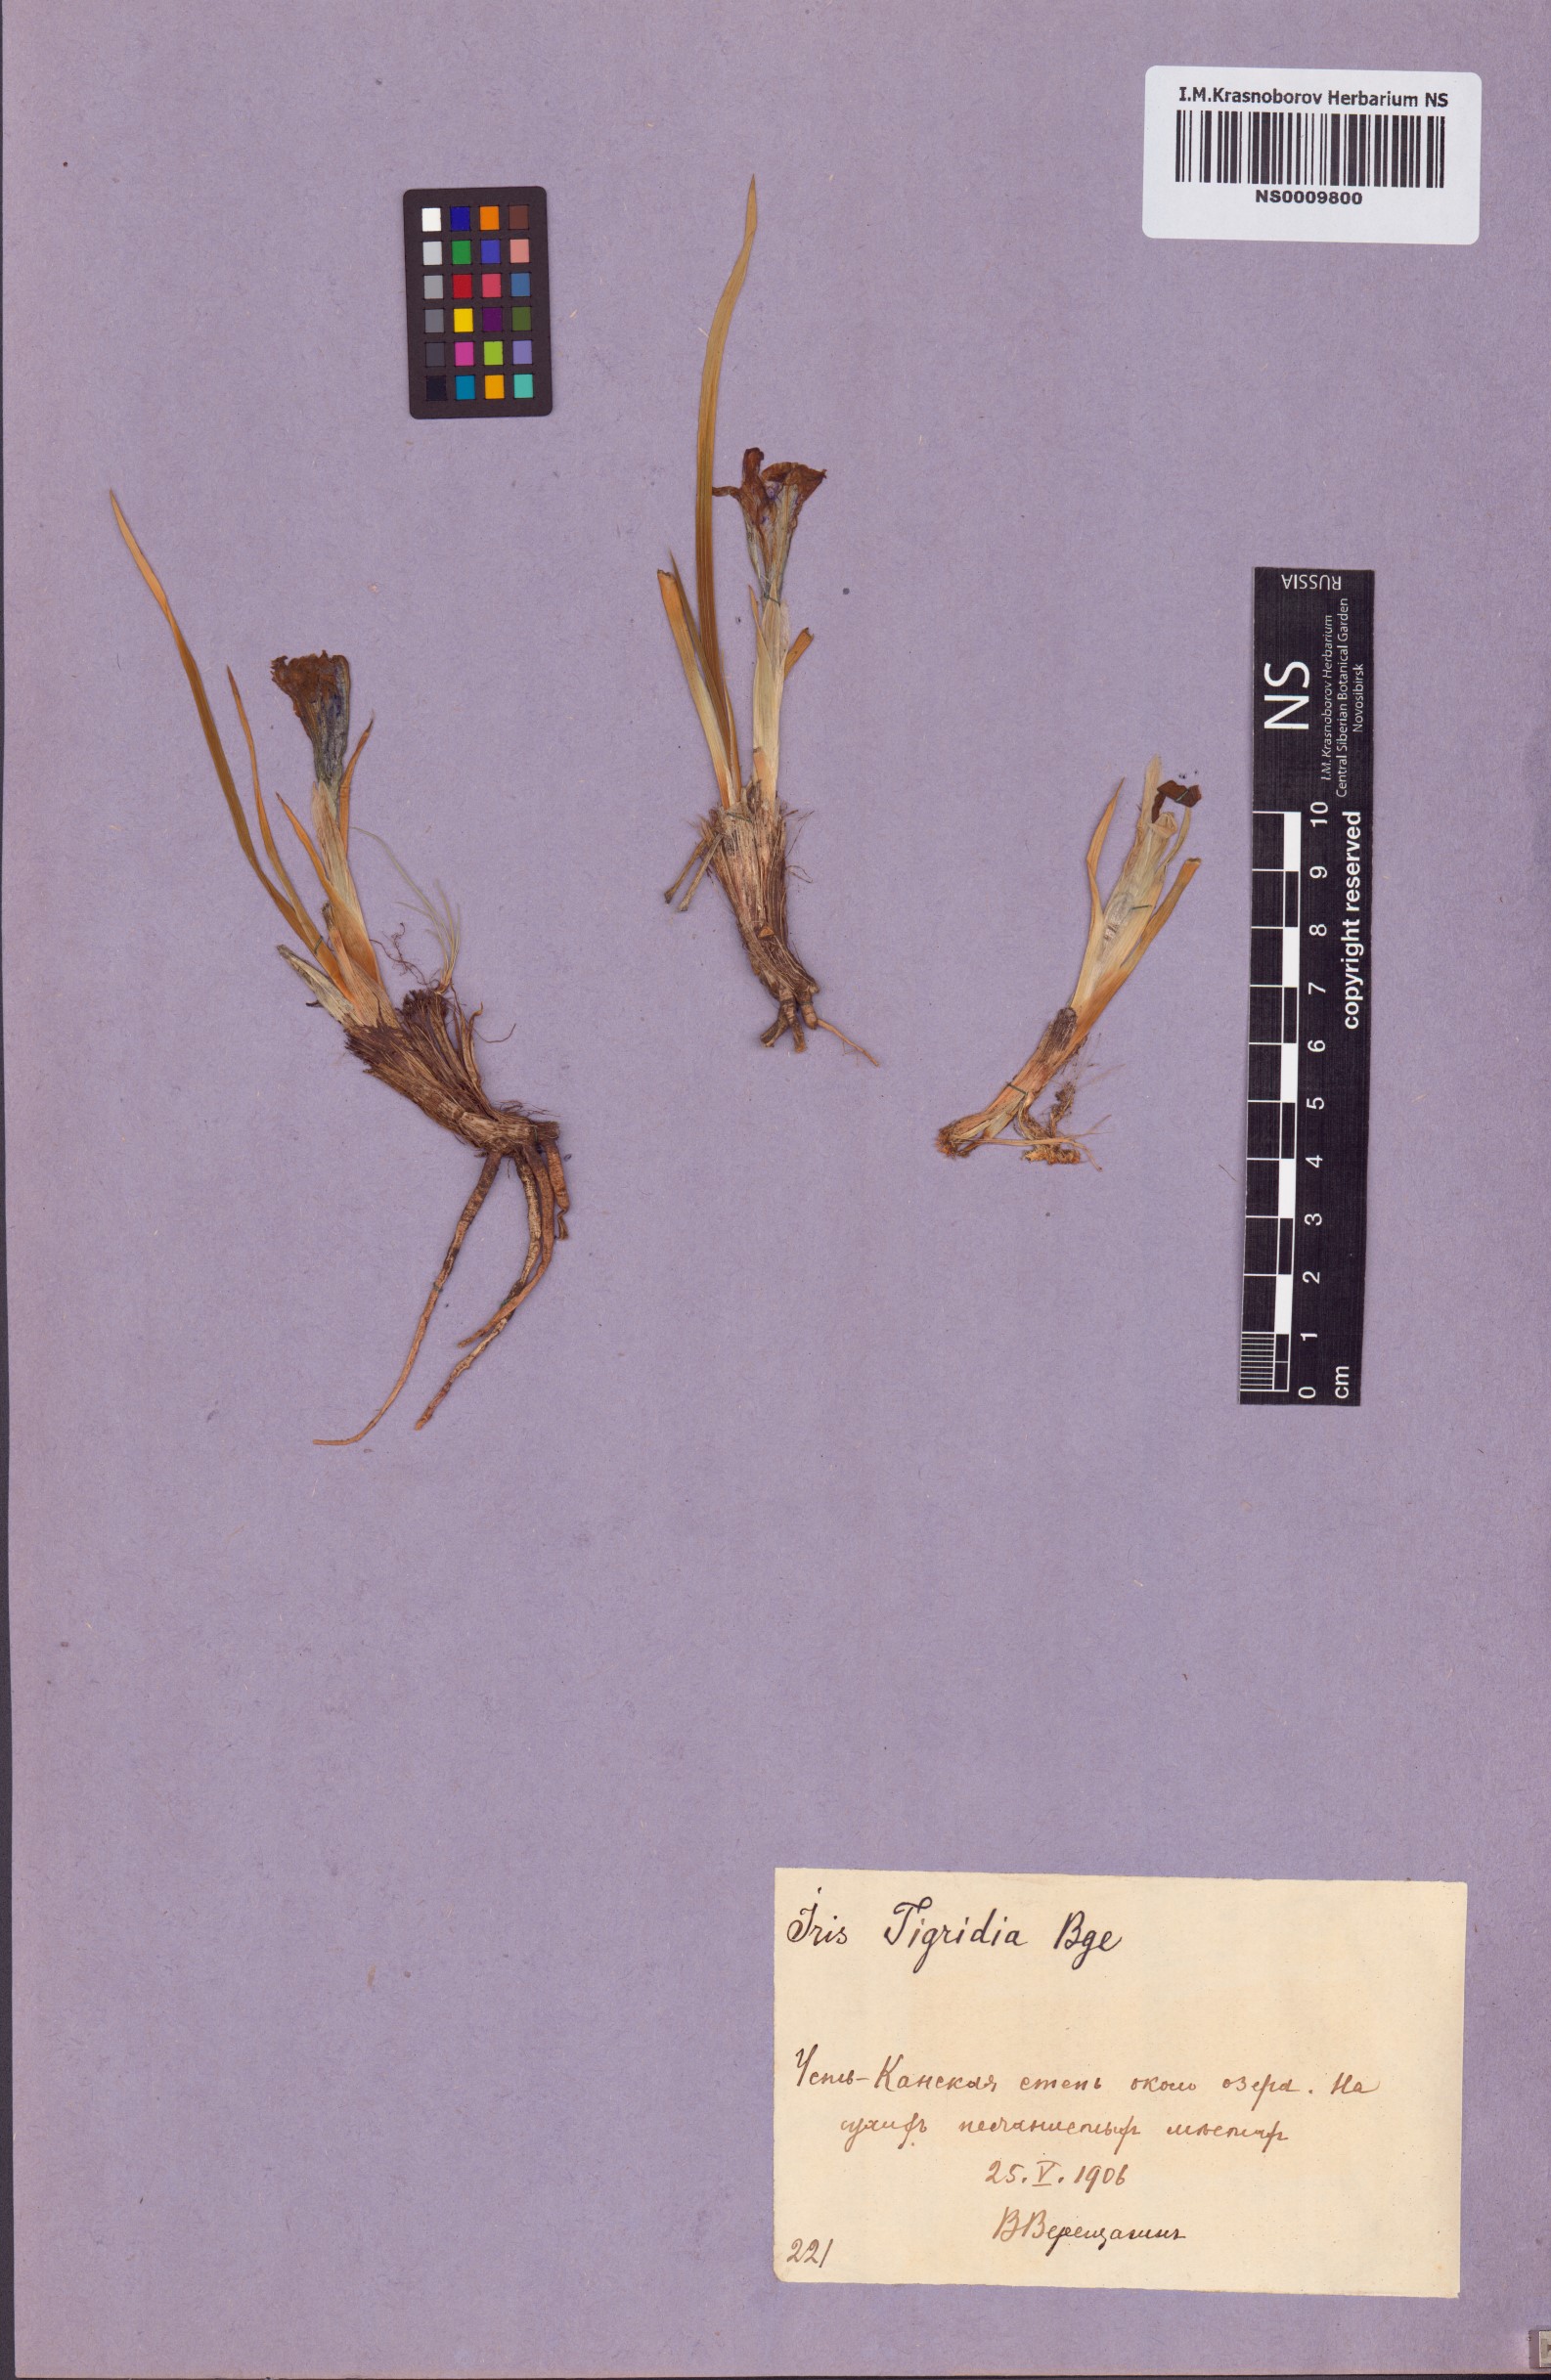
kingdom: Plantae
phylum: Tracheophyta
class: Liliopsida
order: Asparagales
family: Iridaceae
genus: Iris
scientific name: Iris tigridia
